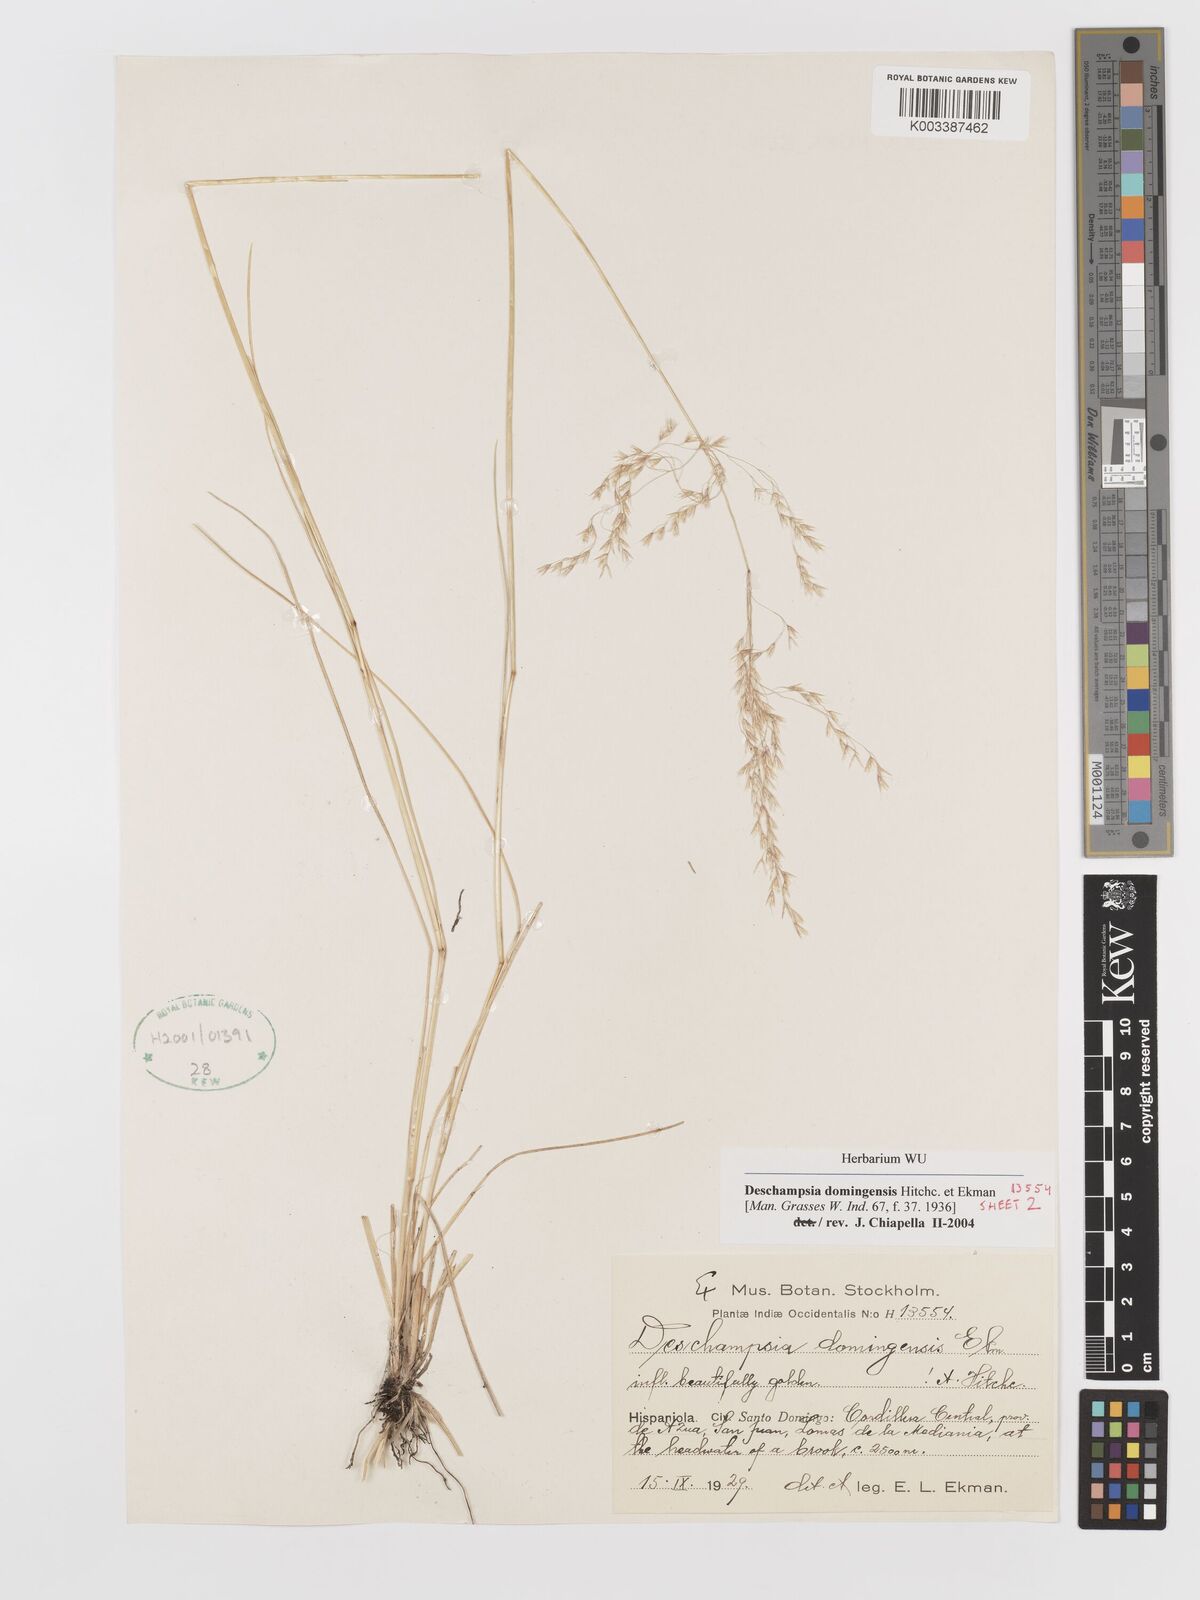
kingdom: Plantae
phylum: Tracheophyta
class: Liliopsida
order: Poales
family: Poaceae
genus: Deschampsia
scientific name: Deschampsia domingensis
